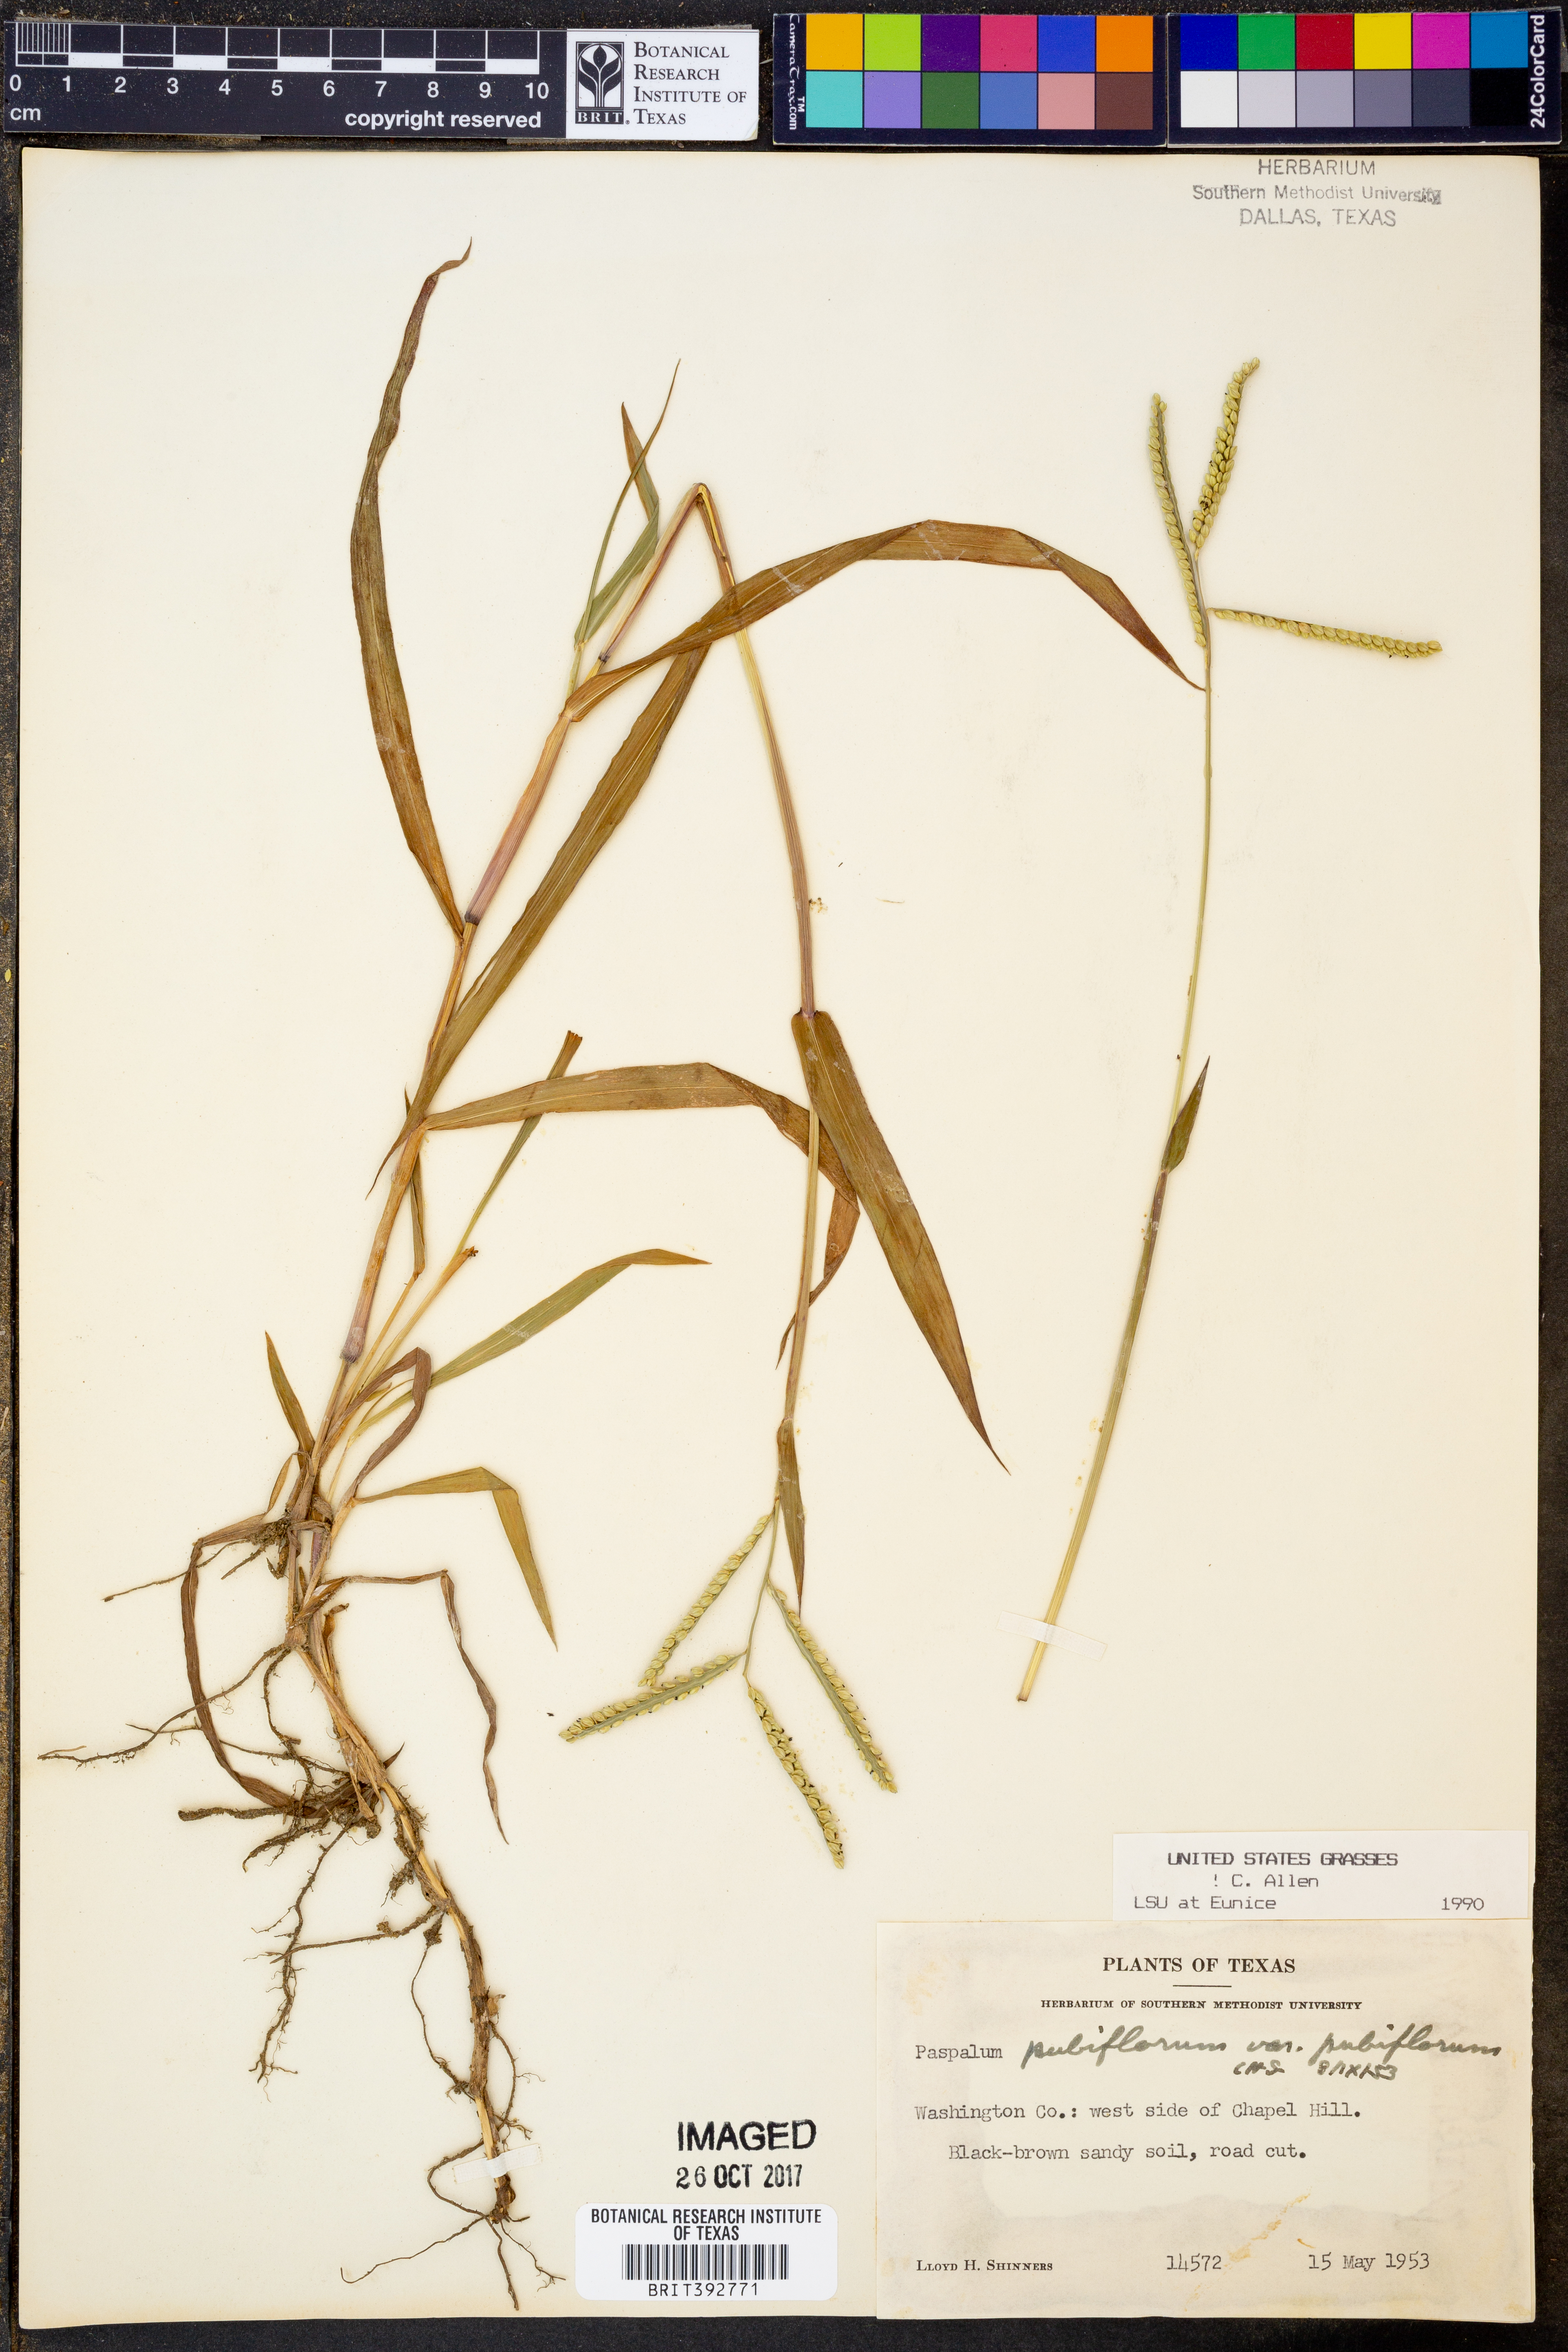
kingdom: Plantae
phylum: Tracheophyta
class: Liliopsida
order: Poales
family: Poaceae
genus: Paspalum
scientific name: Paspalum pubiflorum
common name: Hairy-seed paspalum
